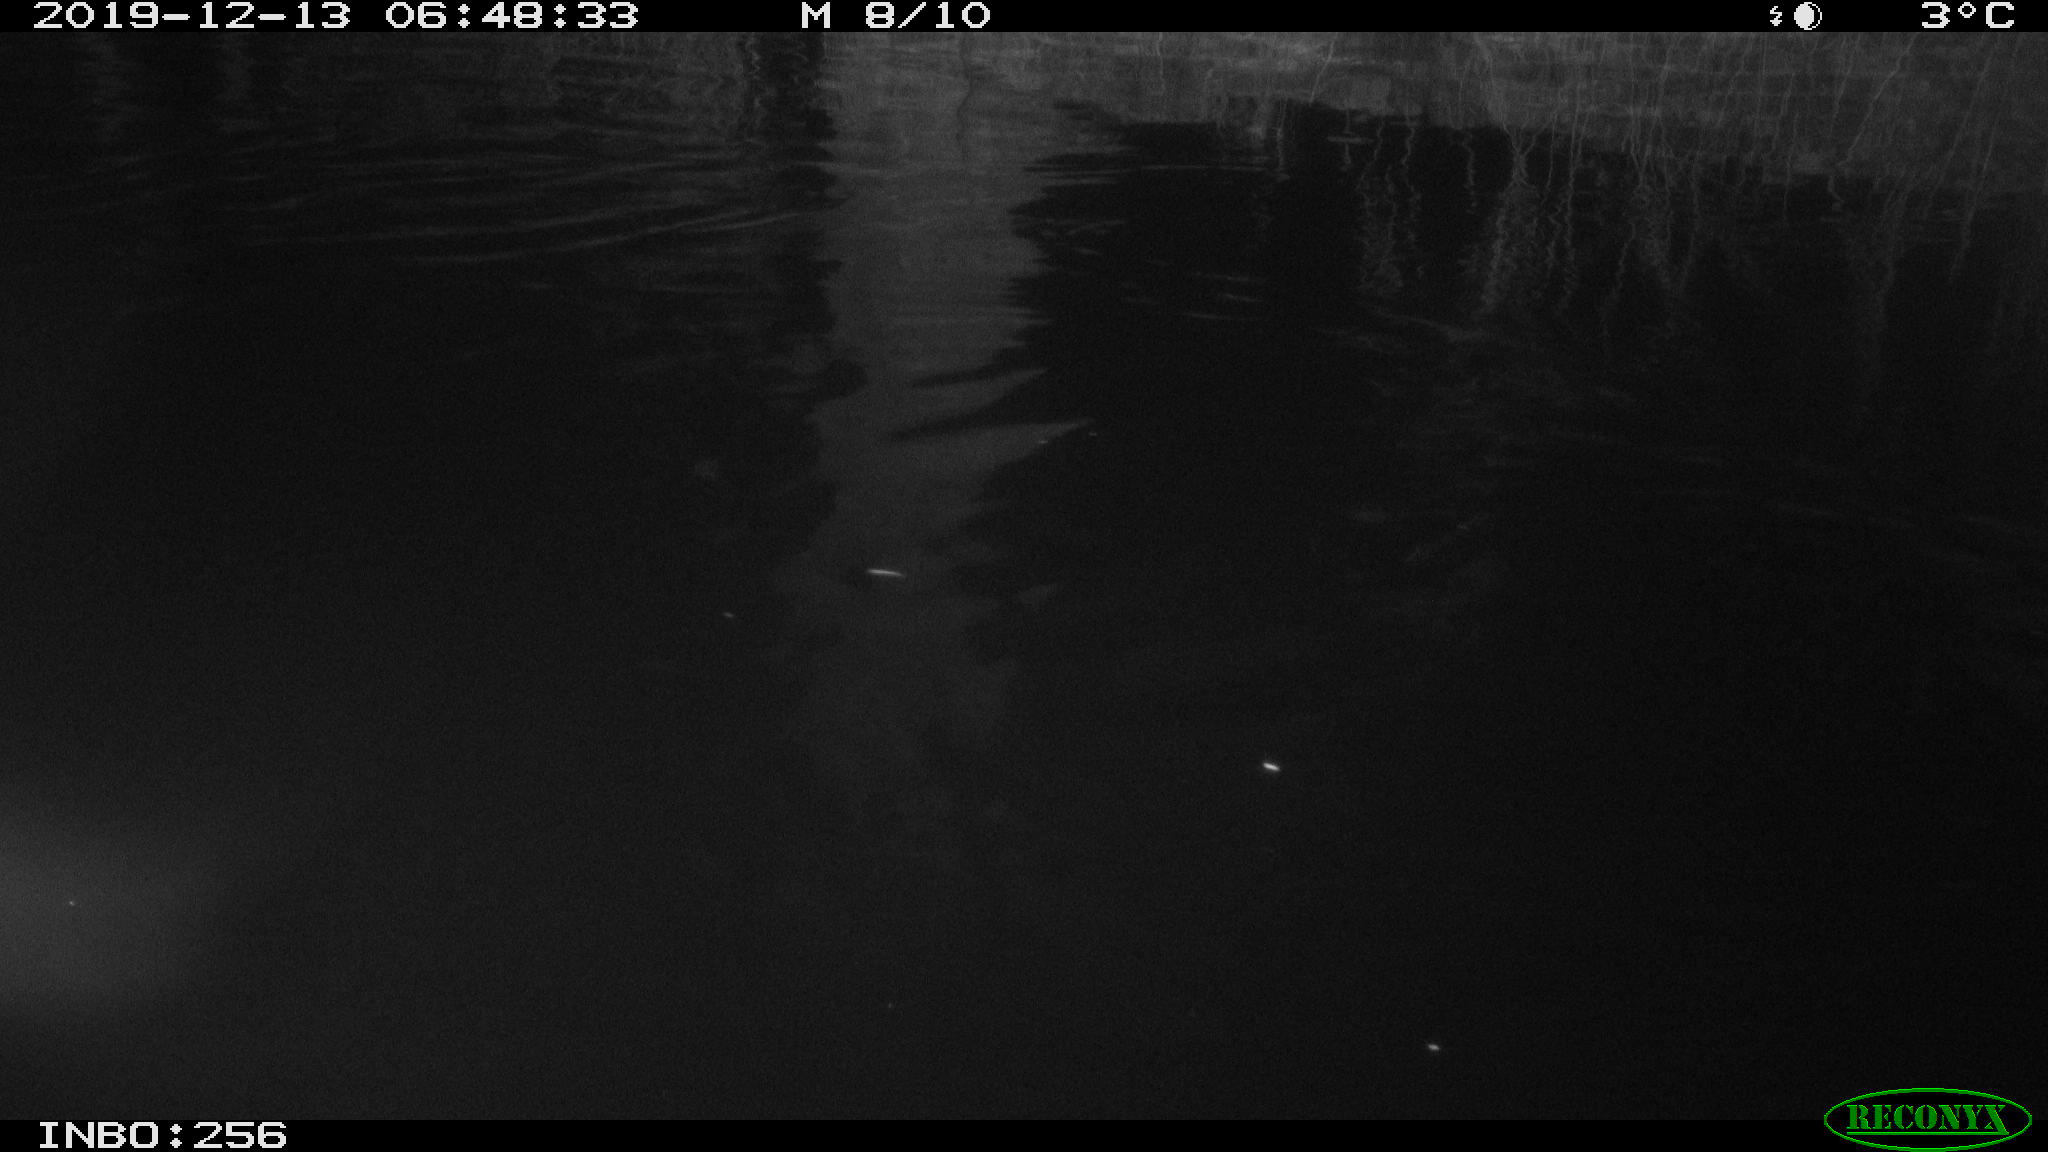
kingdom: Animalia
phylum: Chordata
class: Mammalia
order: Rodentia
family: Muridae
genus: Rattus
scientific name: Rattus norvegicus
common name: Brown rat
